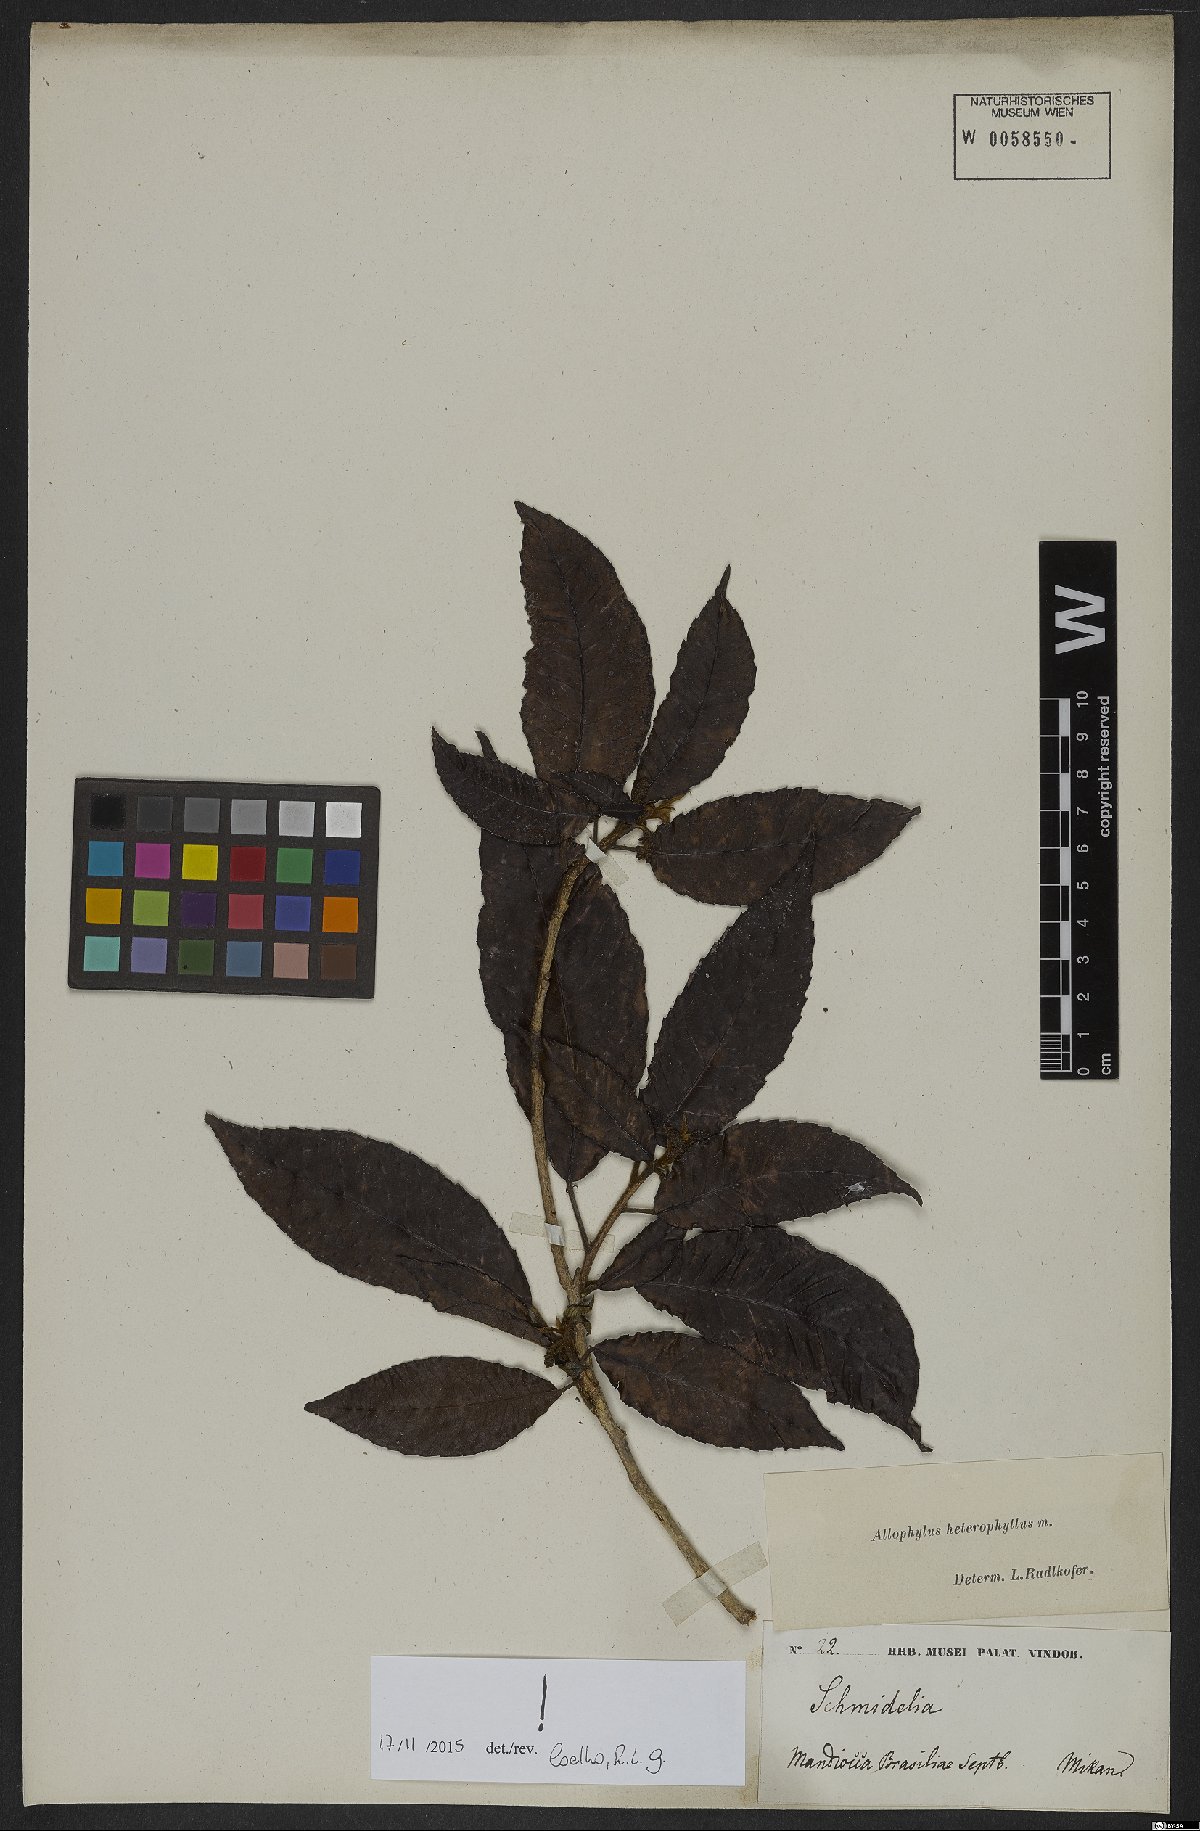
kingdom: Plantae
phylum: Tracheophyta
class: Magnoliopsida
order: Sapindales
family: Sapindaceae
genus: Allophylus
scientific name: Allophylus heterophyllus
